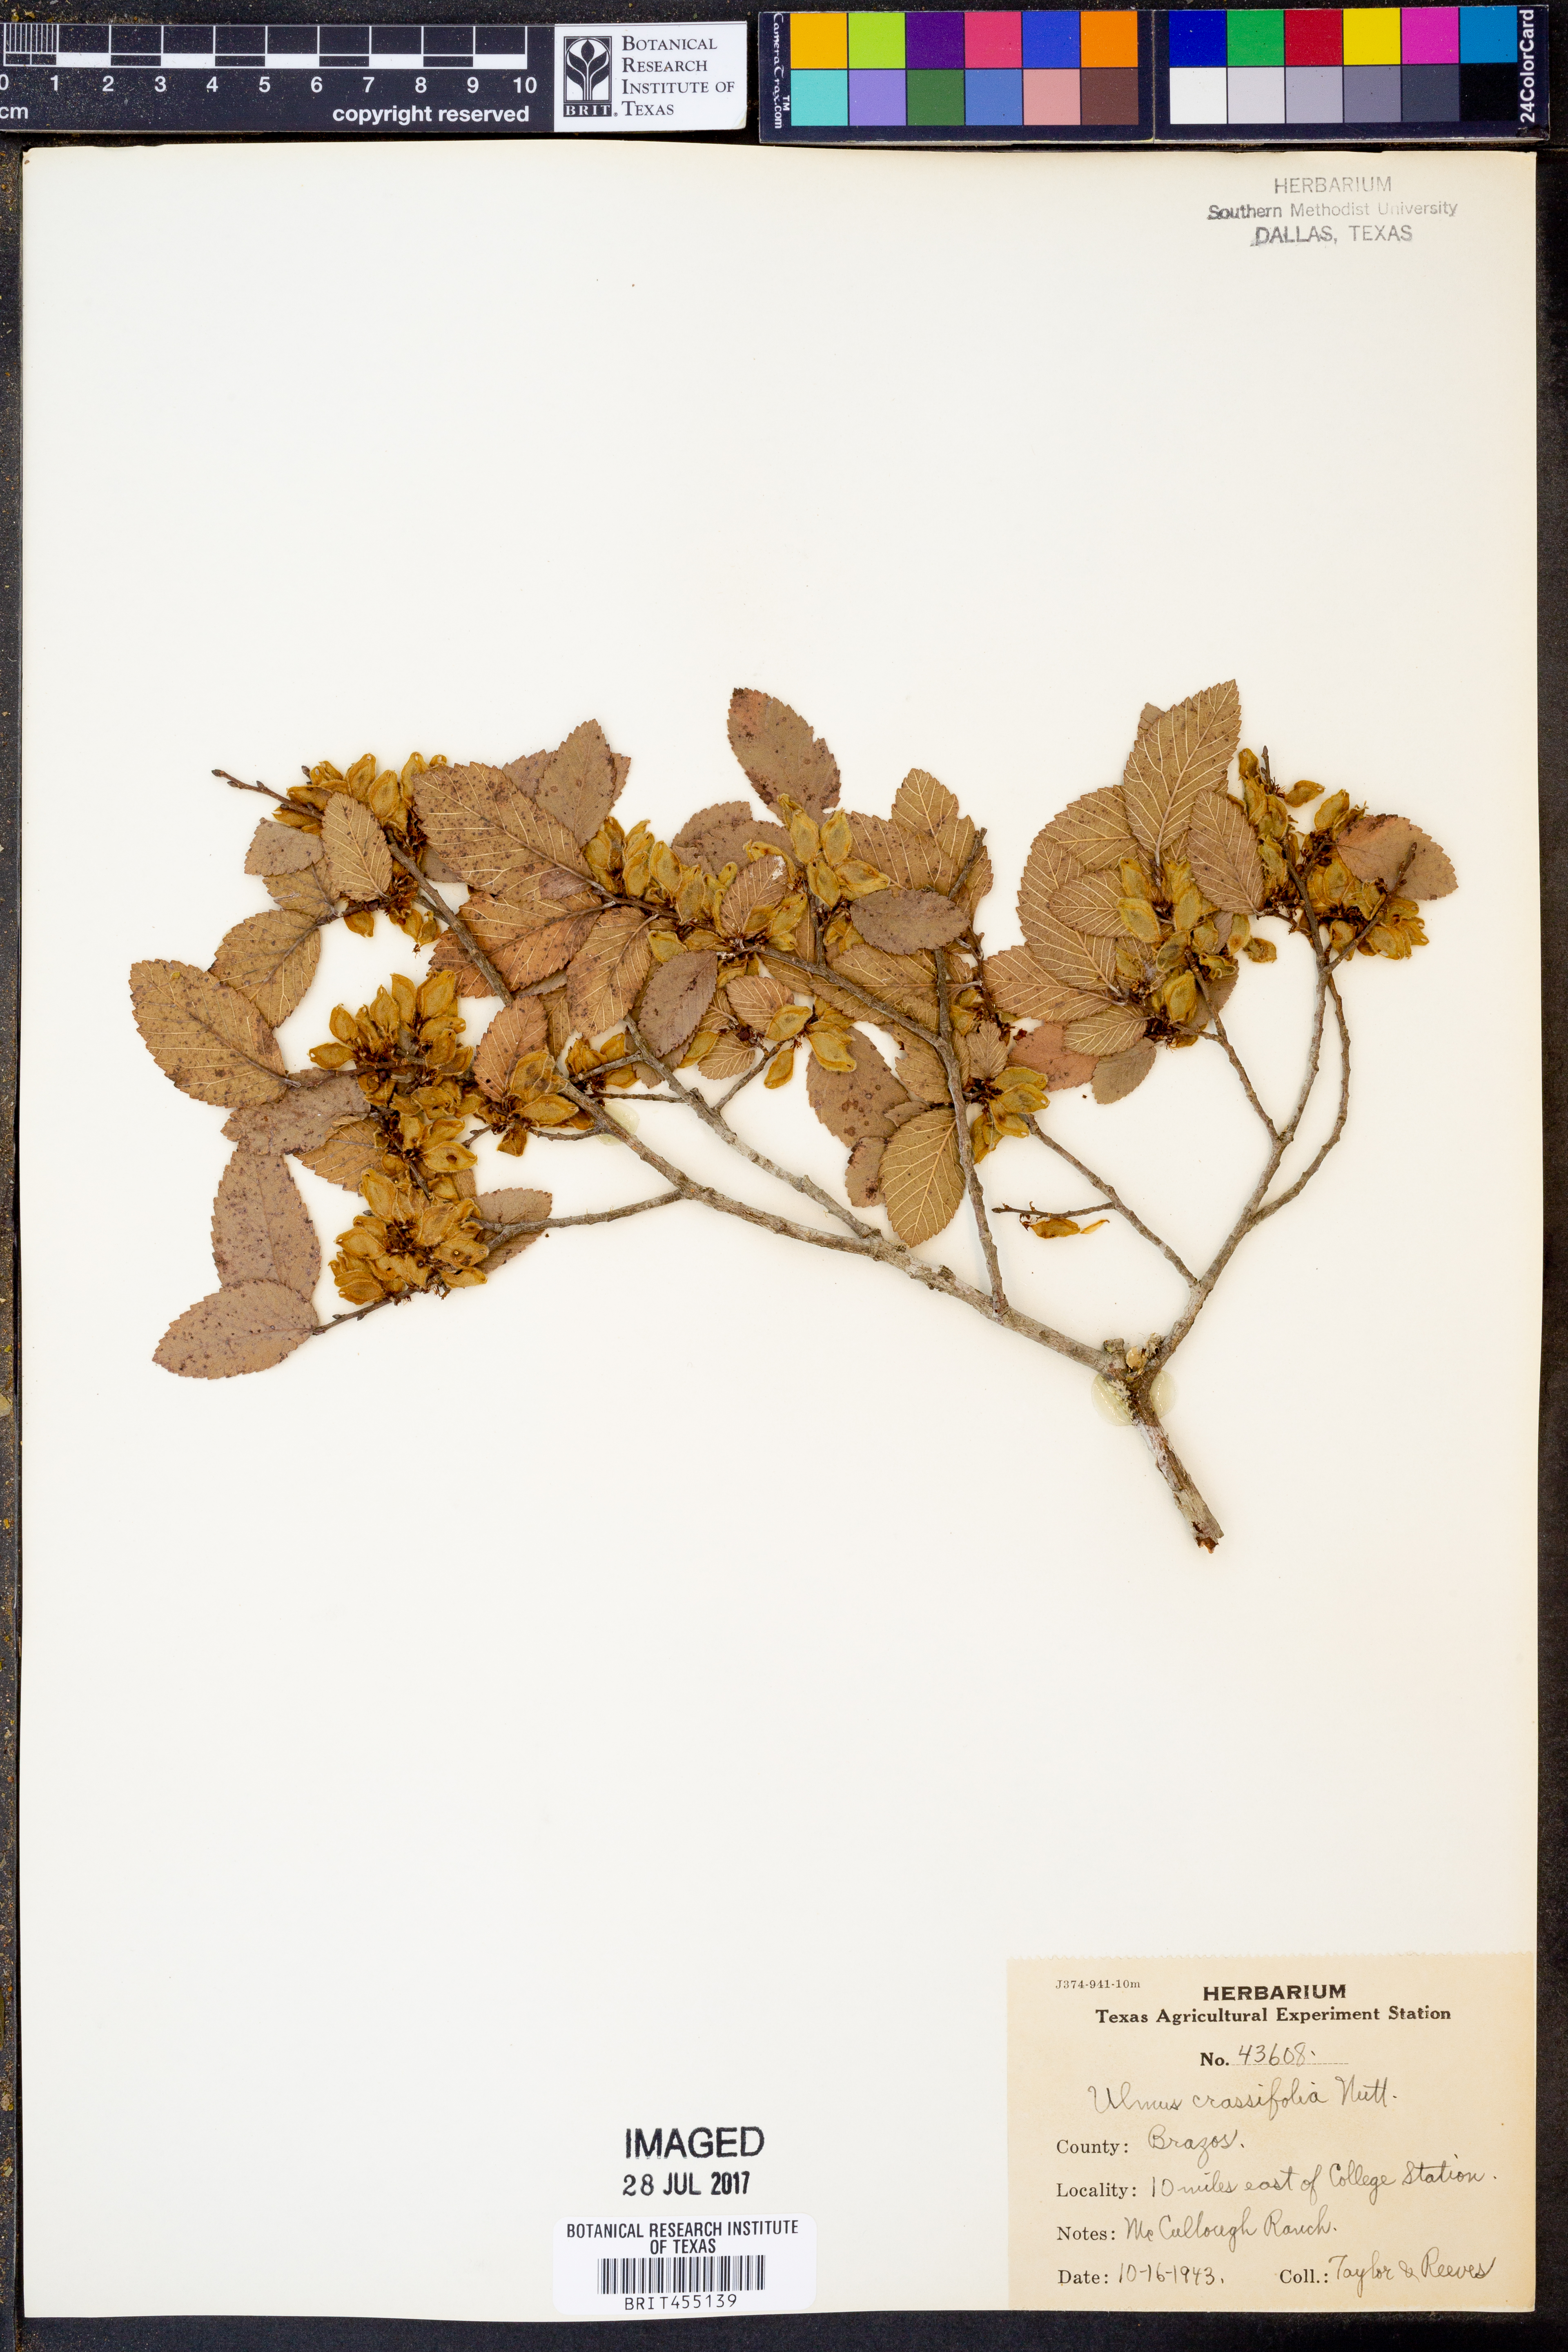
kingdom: Plantae
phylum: Tracheophyta
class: Magnoliopsida
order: Rosales
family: Ulmaceae
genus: Ulmus
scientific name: Ulmus crassifolia
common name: Basket elm
